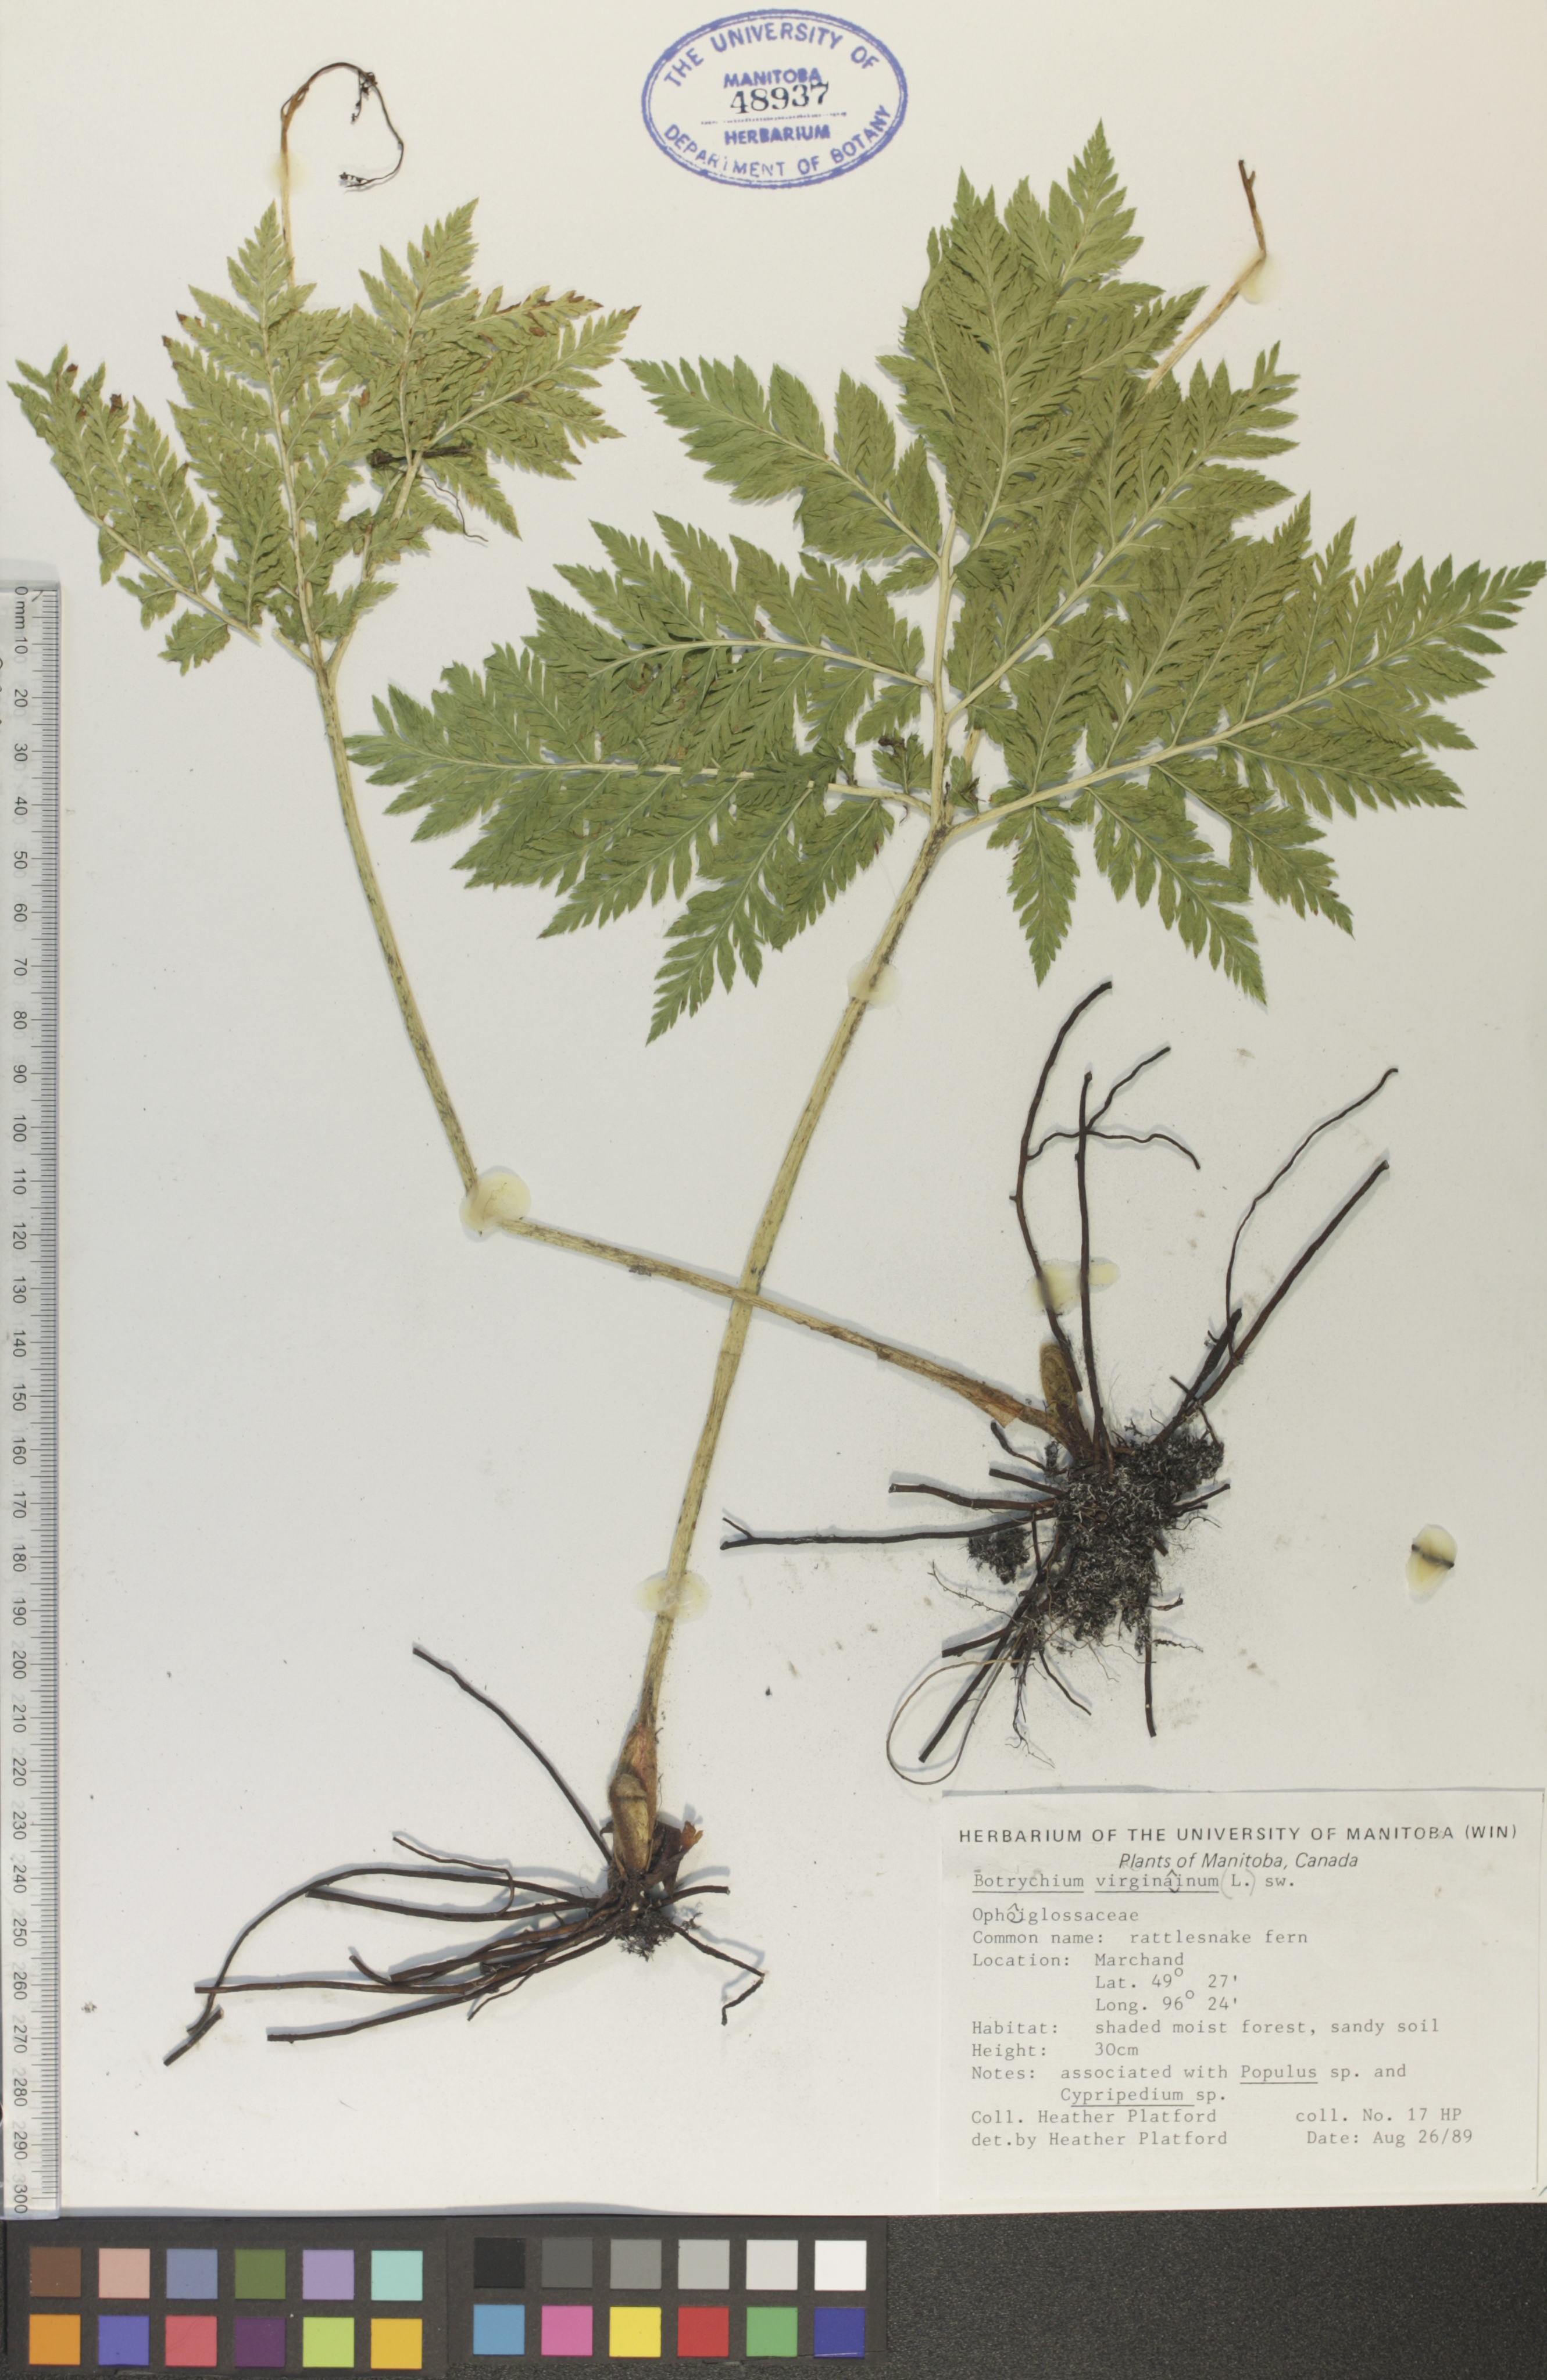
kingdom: Plantae
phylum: Tracheophyta
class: Polypodiopsida
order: Ophioglossales
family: Ophioglossaceae
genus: Botrypus
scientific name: Botrypus virginianus
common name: Common grapefern
